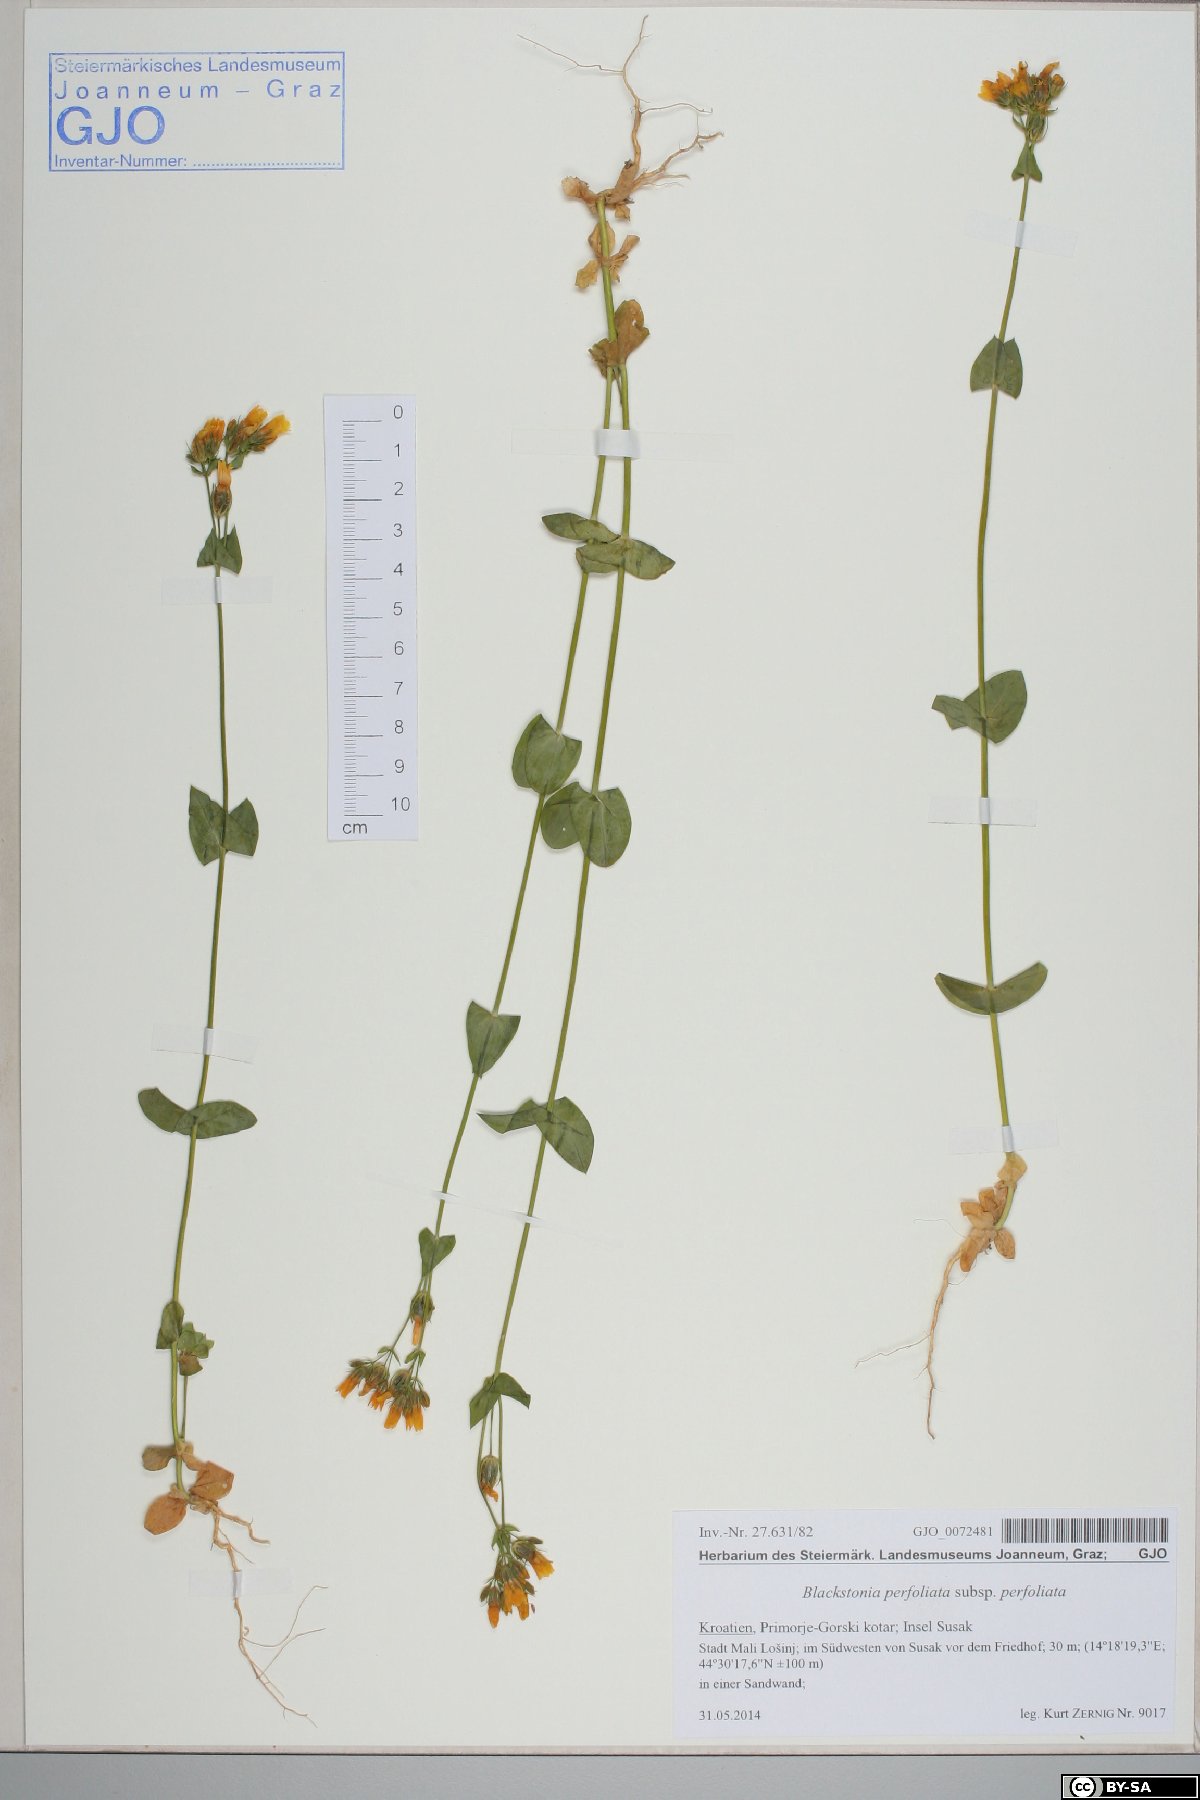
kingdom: Plantae
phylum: Tracheophyta
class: Magnoliopsida
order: Gentianales
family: Gentianaceae
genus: Blackstonia
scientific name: Blackstonia perfoliata
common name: Yellow-wort
